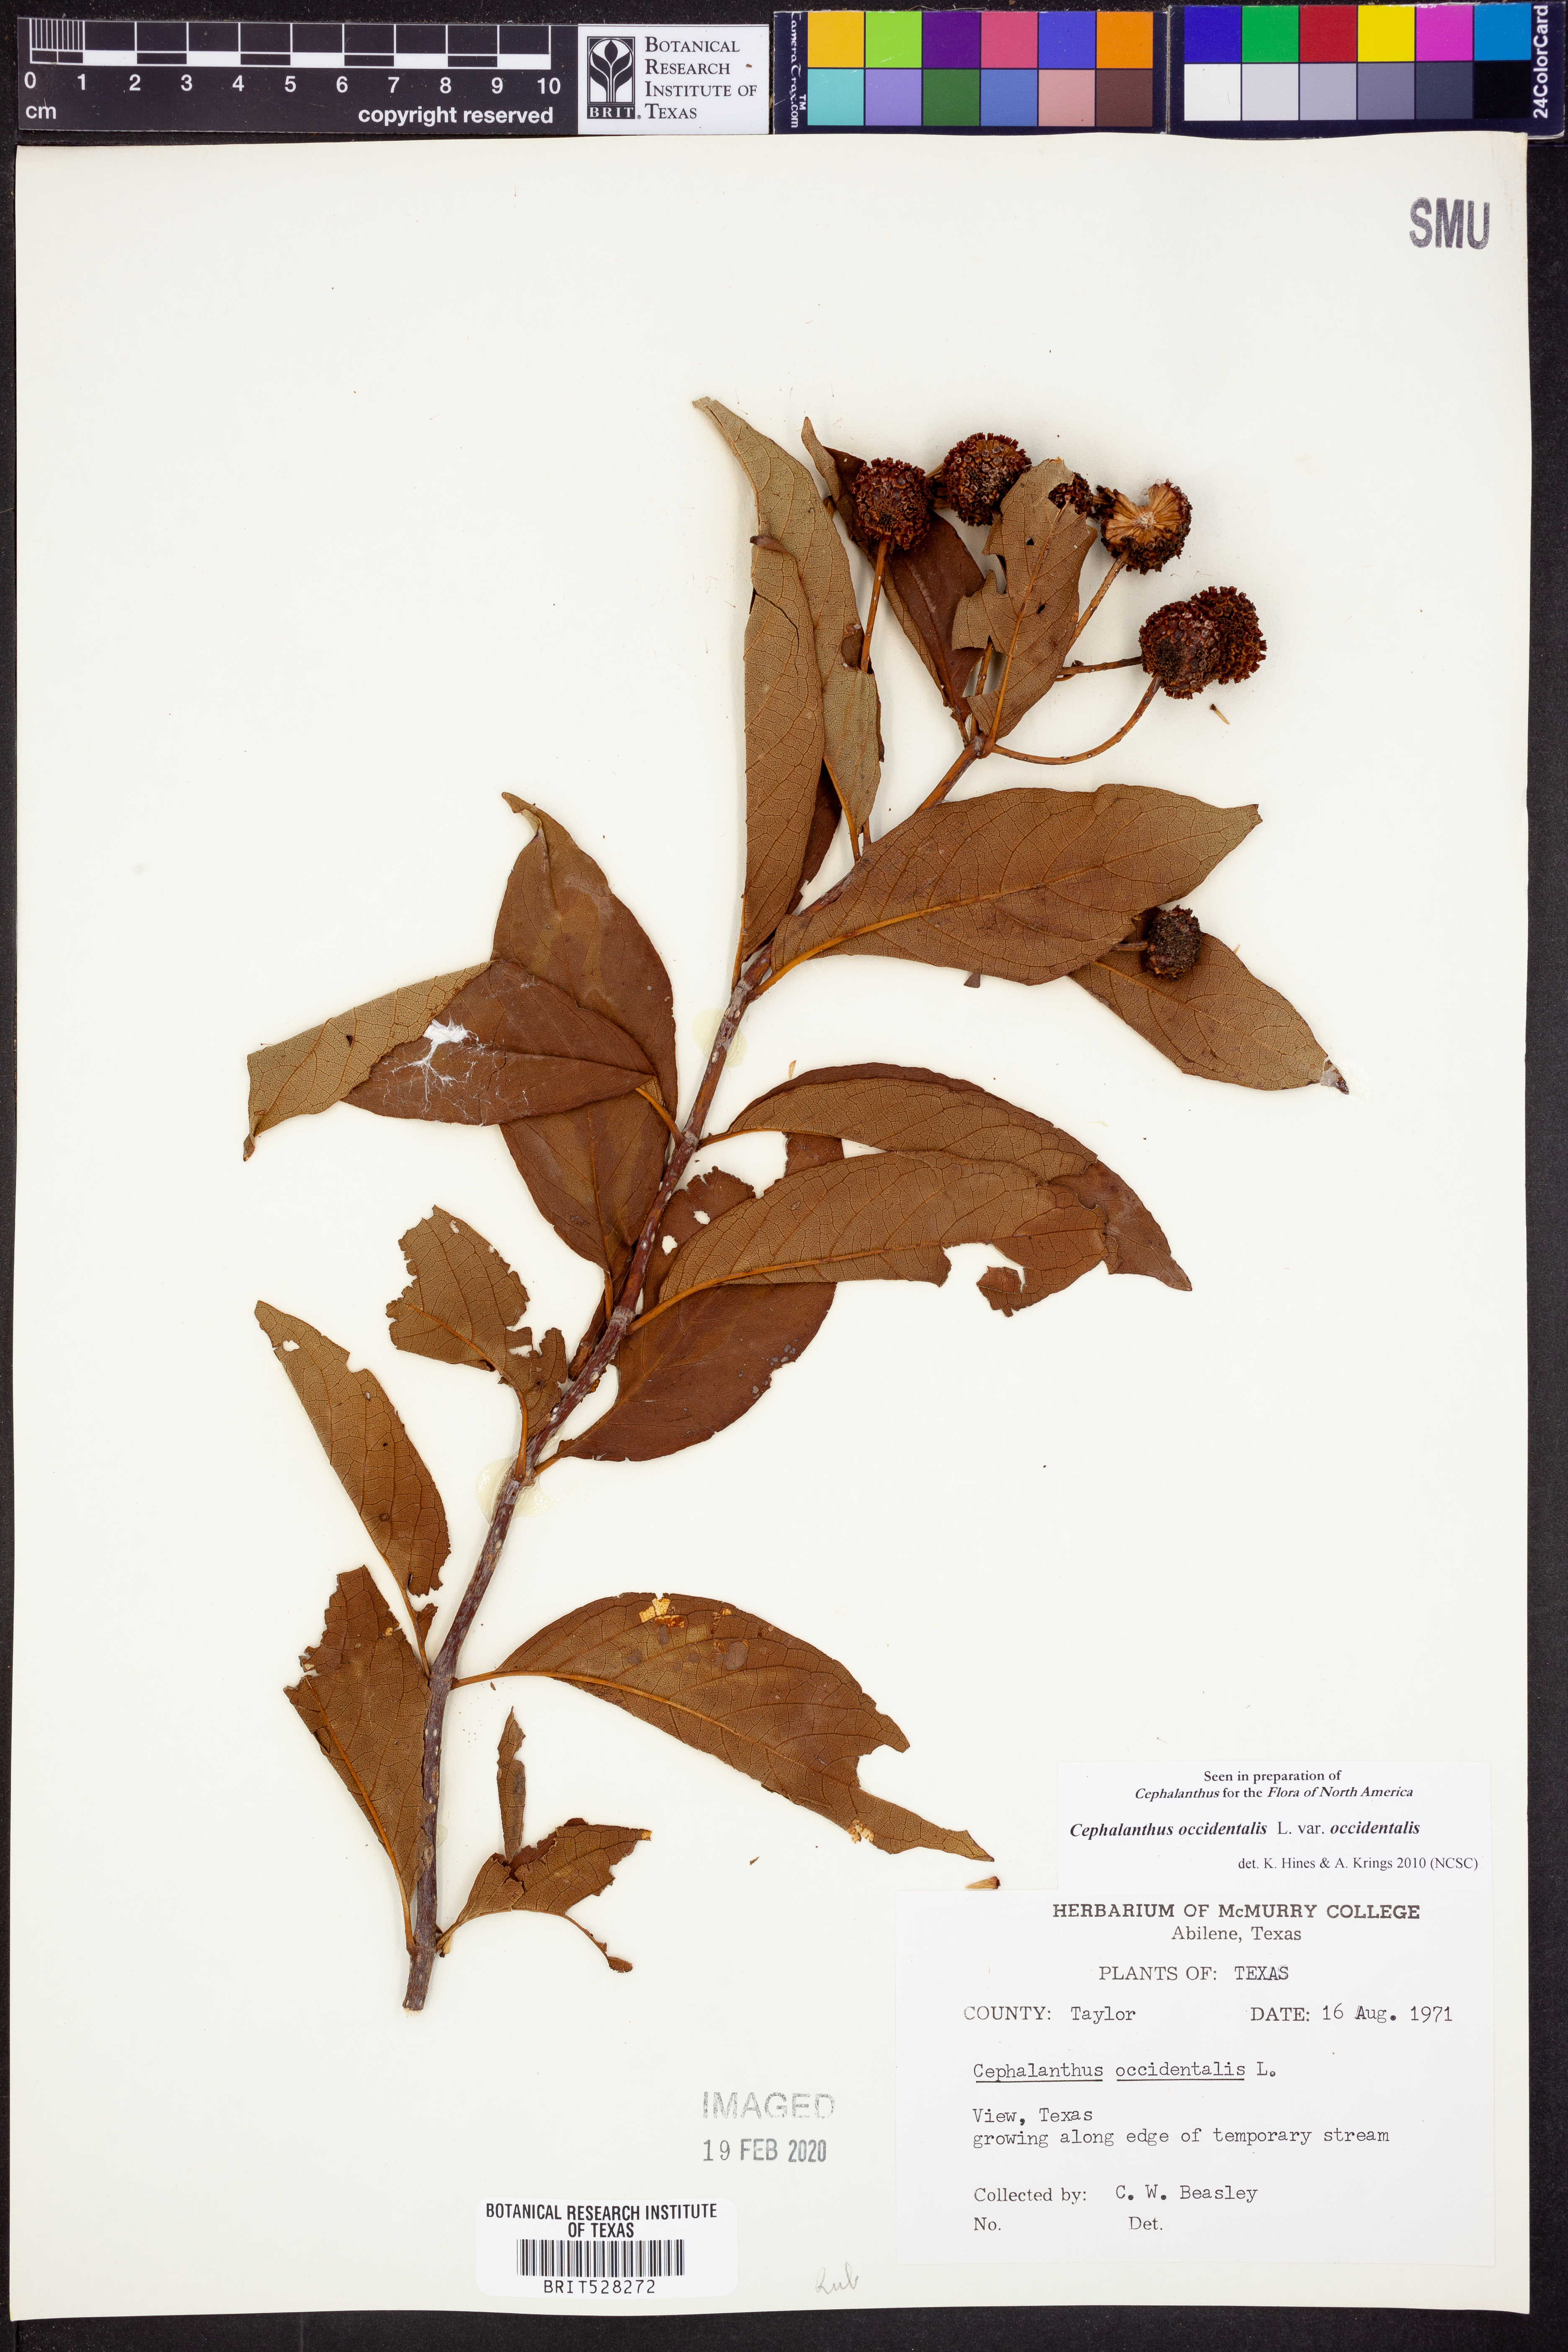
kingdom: Plantae
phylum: Tracheophyta
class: Magnoliopsida
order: Gentianales
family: Rubiaceae
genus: Cephalanthus
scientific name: Cephalanthus occidentalis
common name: Button-willow
